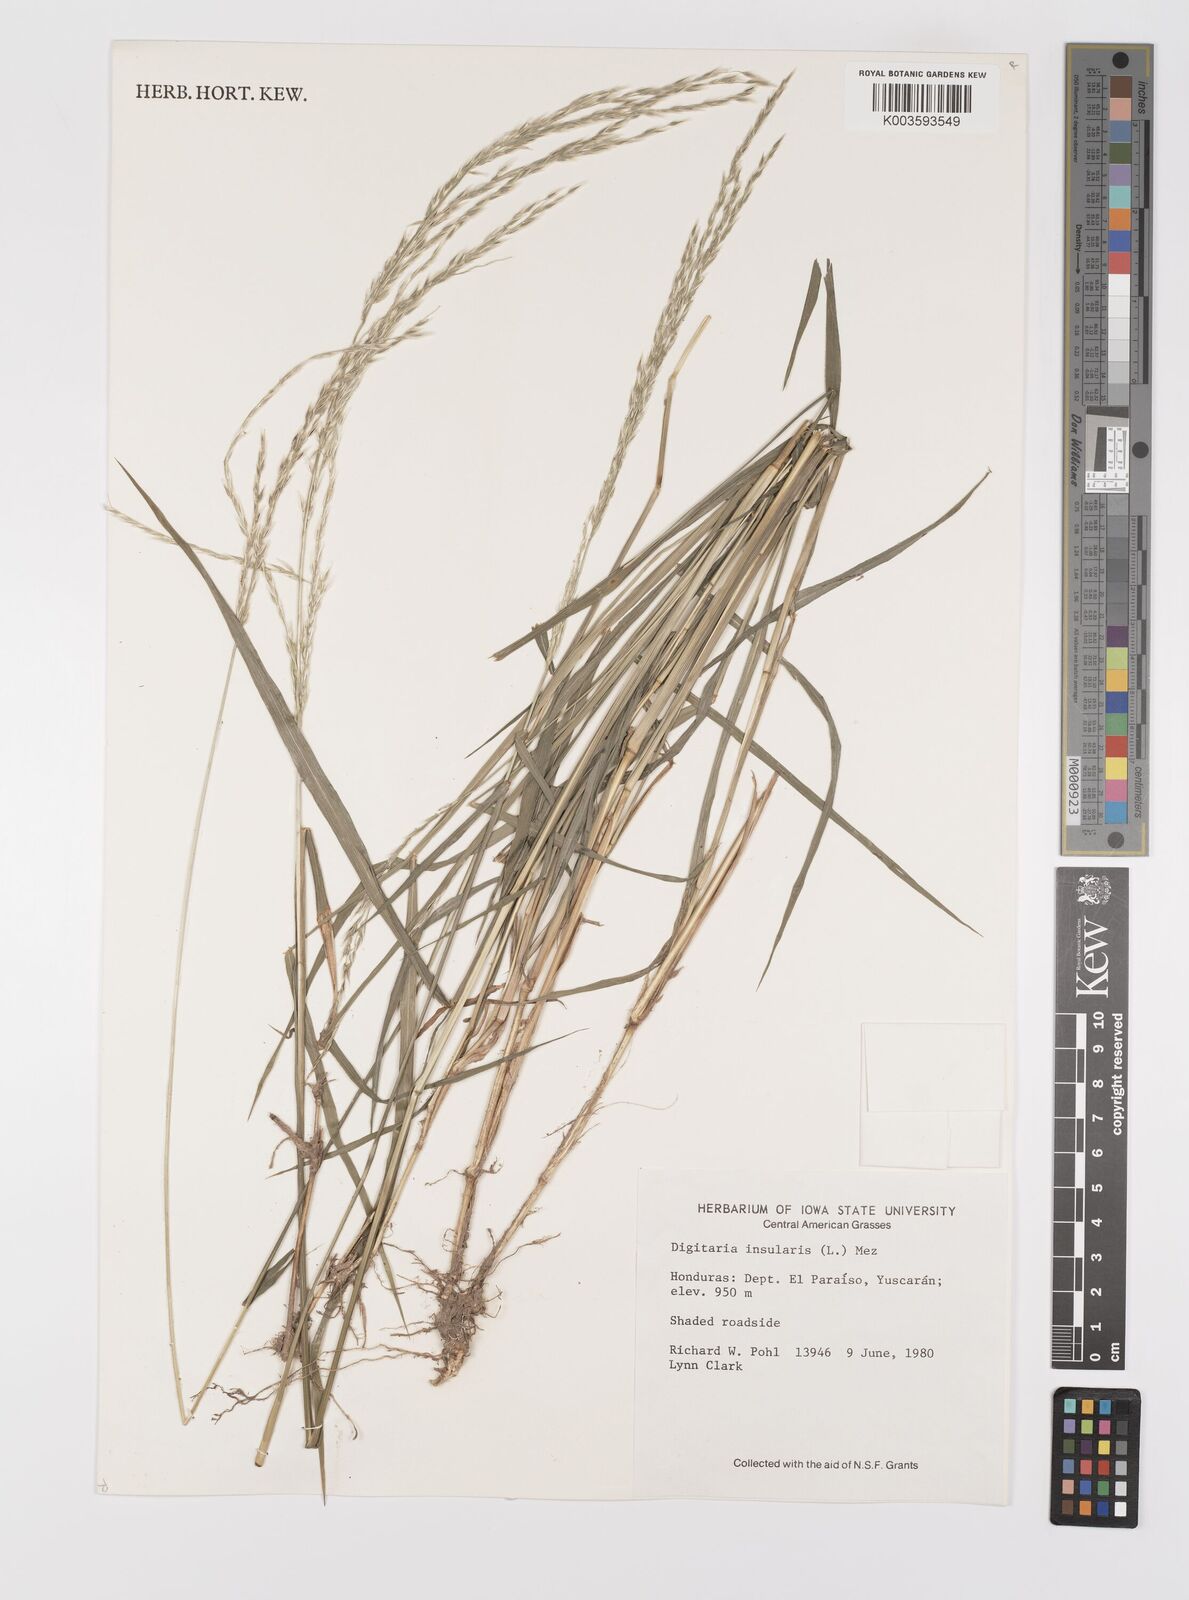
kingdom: Plantae
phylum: Tracheophyta
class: Liliopsida
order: Poales
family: Poaceae
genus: Digitaria
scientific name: Digitaria sellowii
